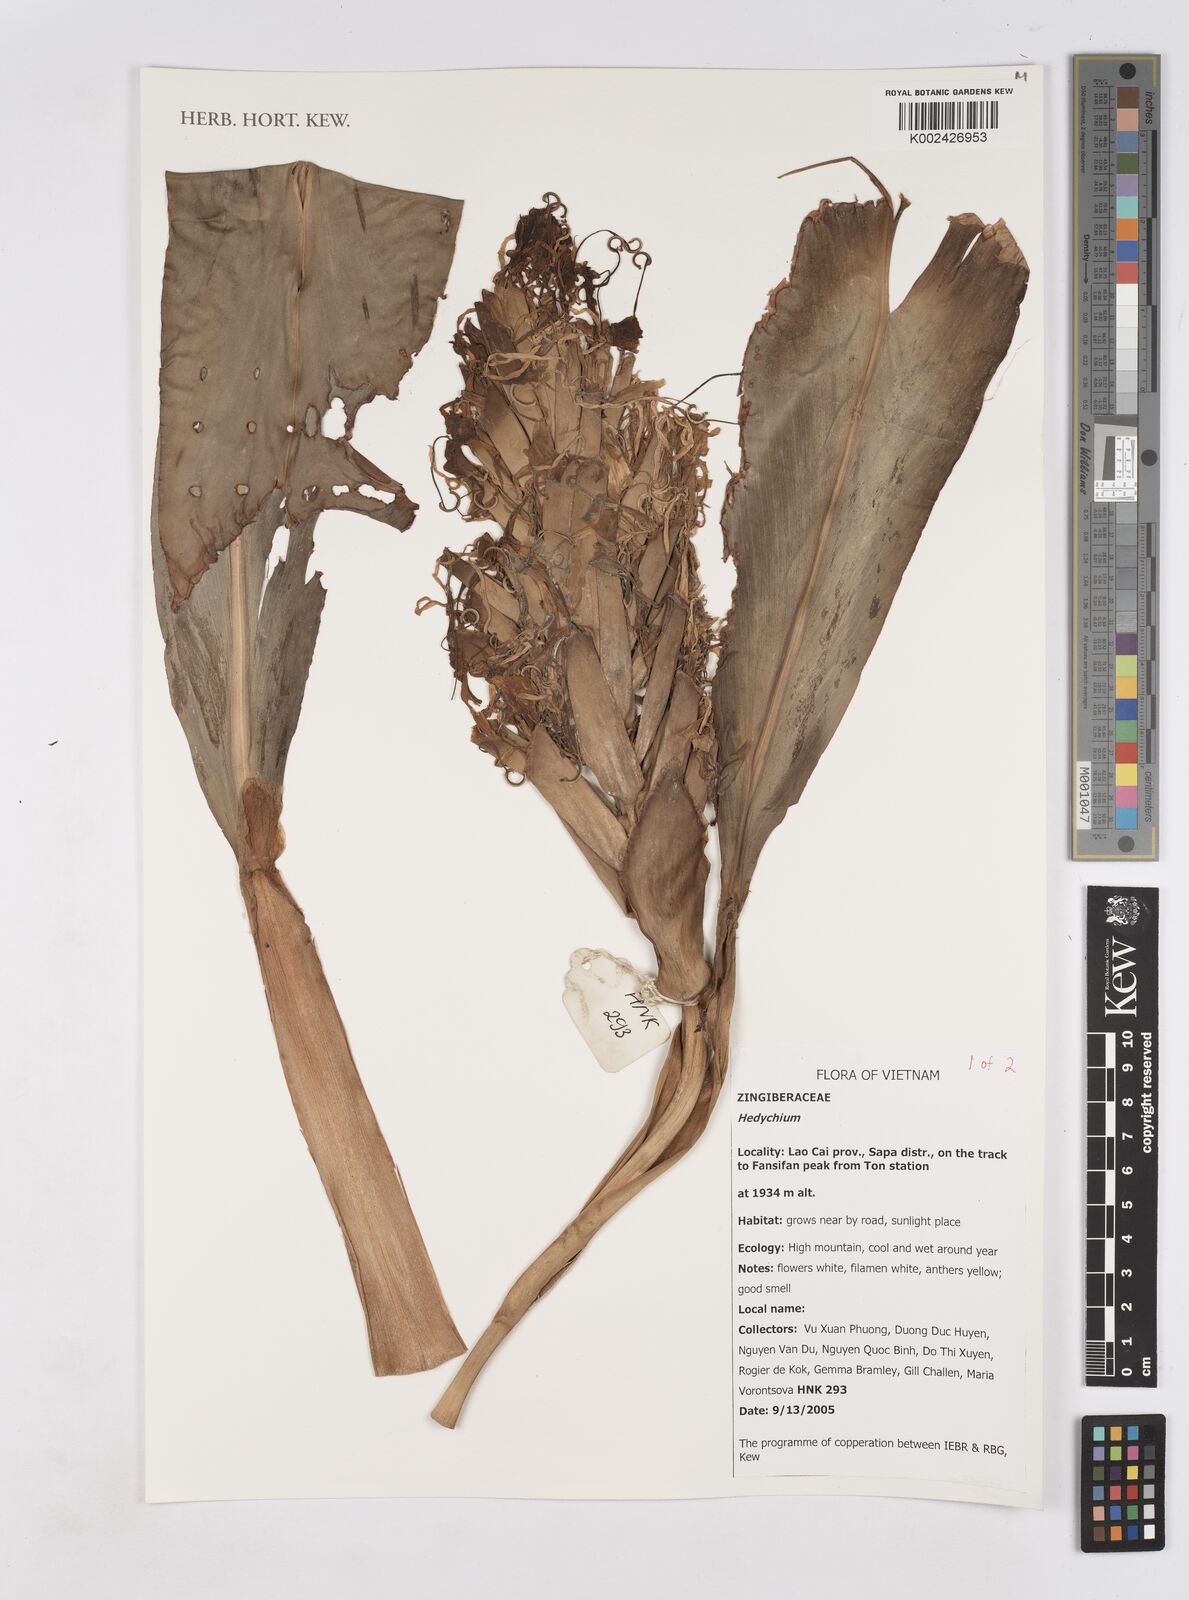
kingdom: Plantae
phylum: Tracheophyta
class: Liliopsida
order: Zingiberales
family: Zingiberaceae
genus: Hedychium
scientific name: Hedychium
